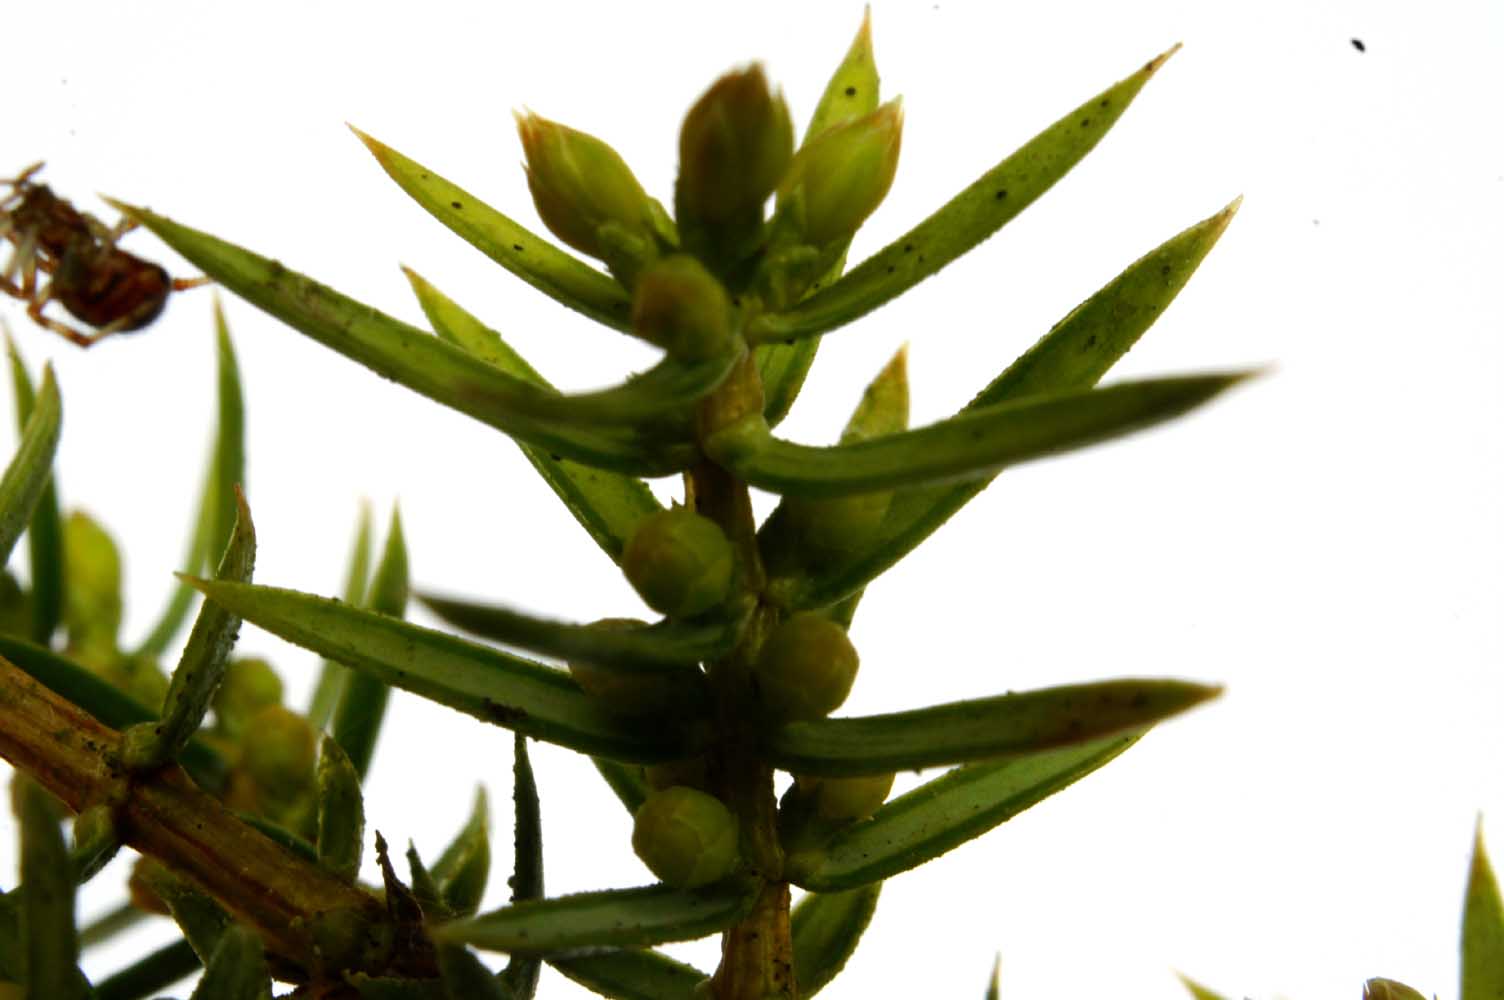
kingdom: Fungi
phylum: Basidiomycota
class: Pucciniomycetes
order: Pucciniales
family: Gymnosporangiaceae
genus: Gymnosporangium
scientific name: Gymnosporangium clavariiforme
